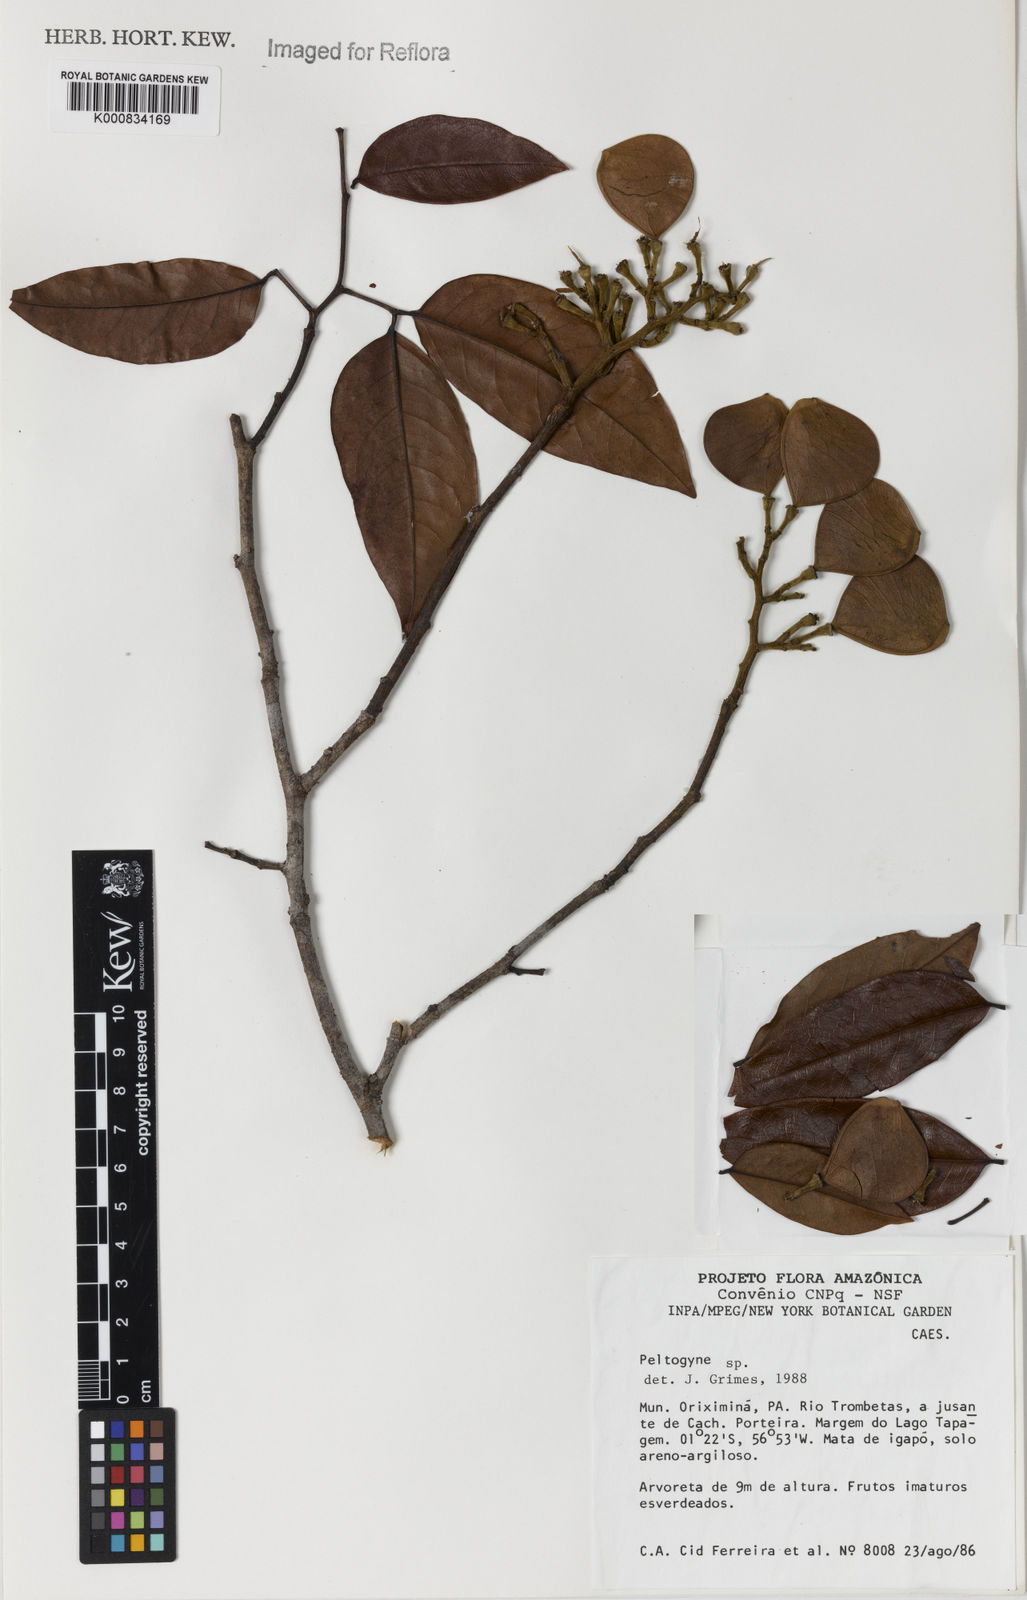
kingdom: Plantae
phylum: Tracheophyta
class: Magnoliopsida
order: Fabales
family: Fabaceae
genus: Peltogyne
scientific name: Peltogyne
